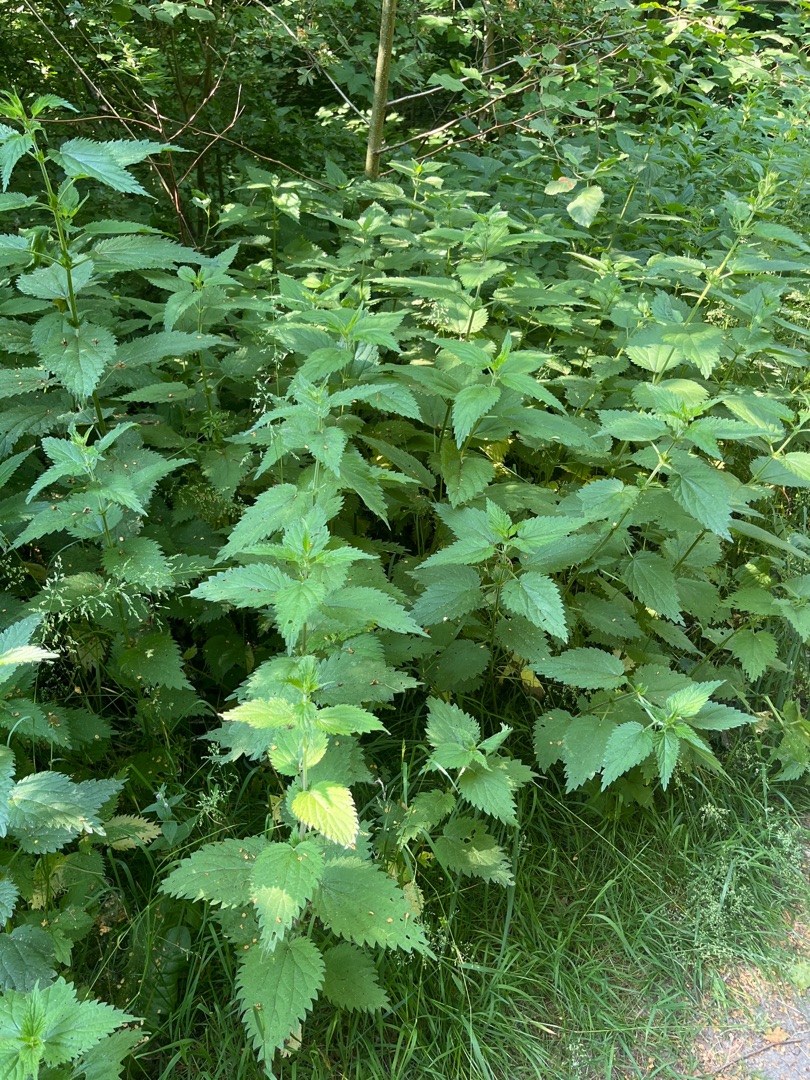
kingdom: Plantae
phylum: Tracheophyta
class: Magnoliopsida
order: Rosales
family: Urticaceae
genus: Urtica
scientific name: Urtica dioica
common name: Stor nælde
